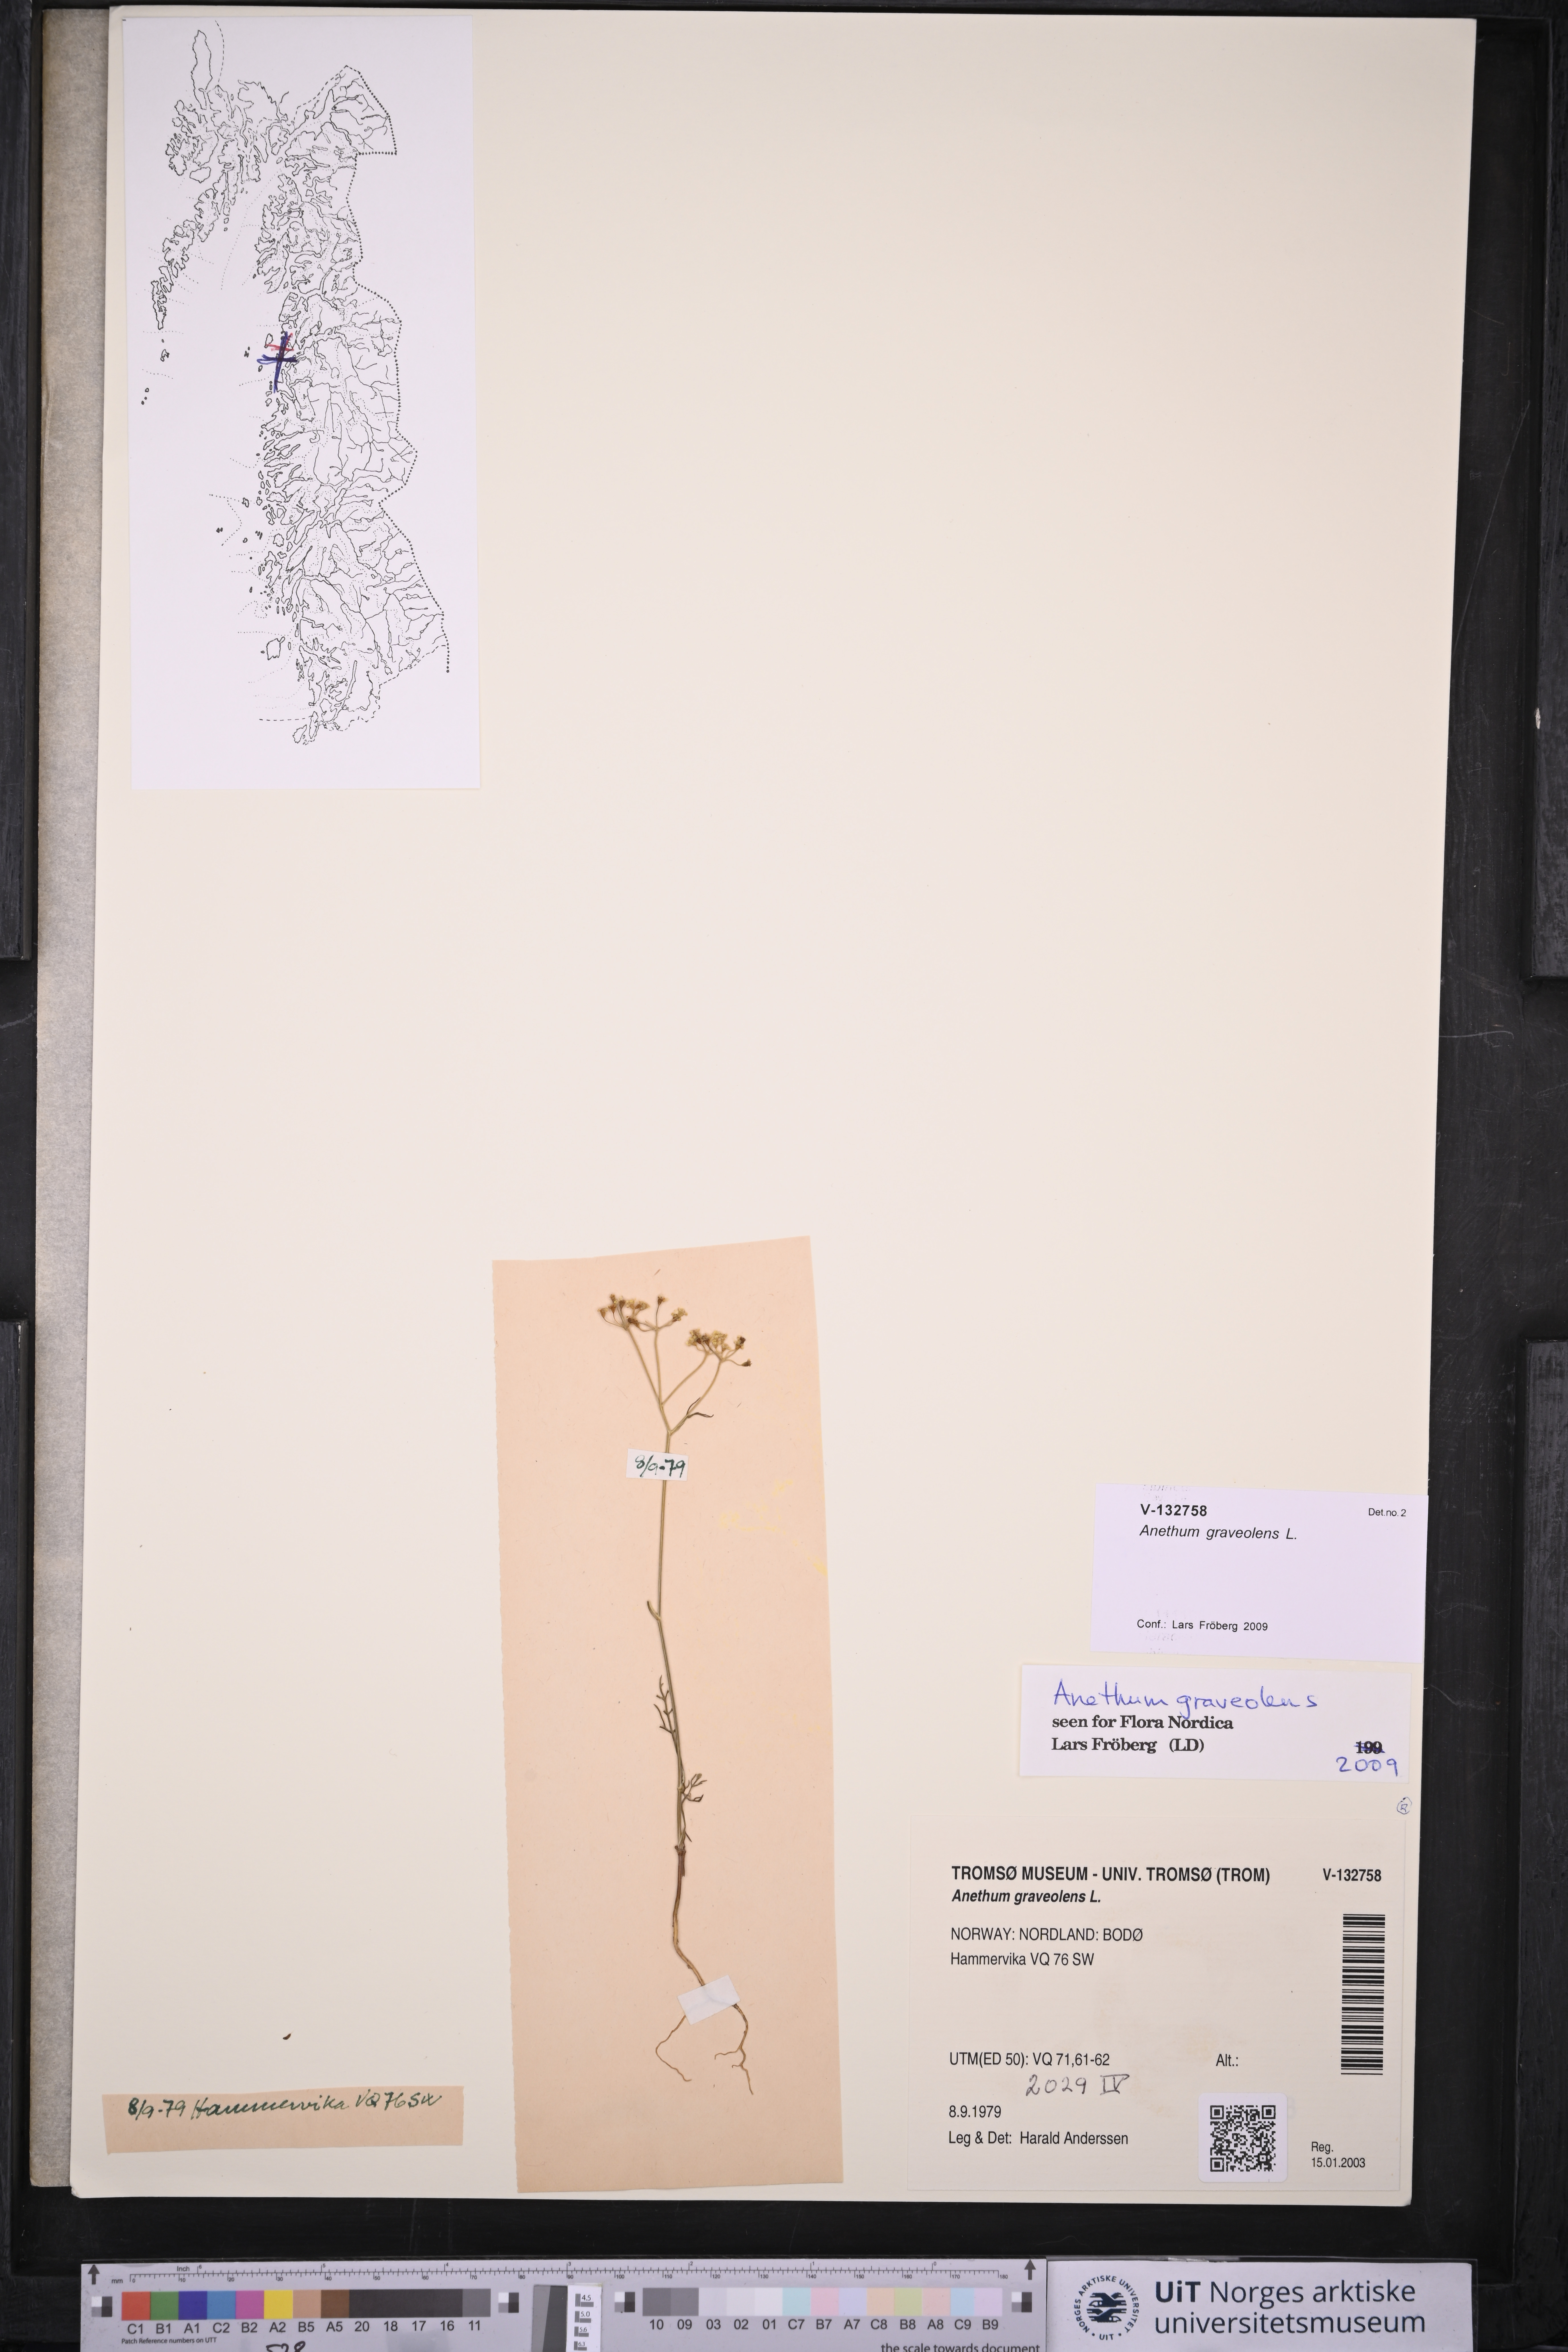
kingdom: Plantae
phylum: Tracheophyta
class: Magnoliopsida
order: Apiales
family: Apiaceae
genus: Anethum
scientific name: Anethum graveolens
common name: Dill
